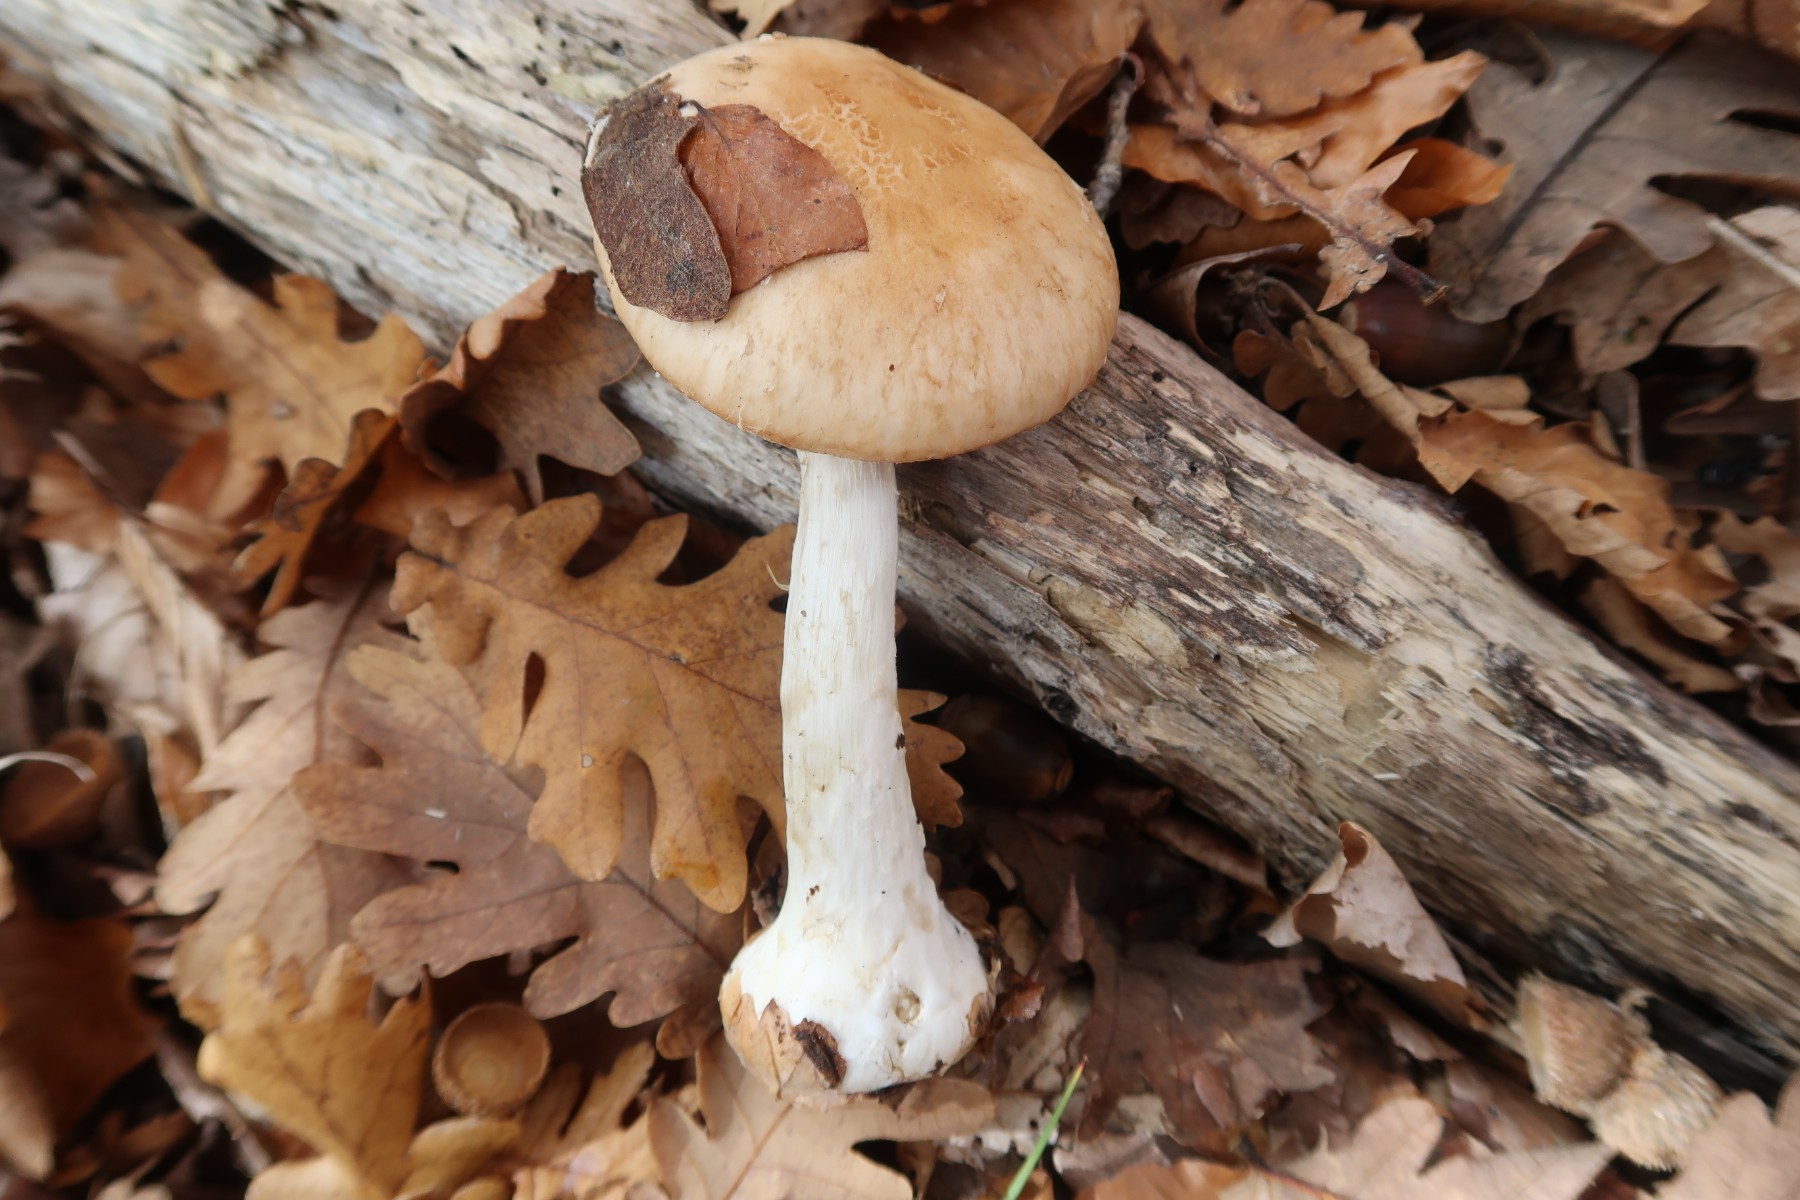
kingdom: Fungi
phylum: Basidiomycota
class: Agaricomycetes
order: Agaricales
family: Tricholomataceae
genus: Leucocortinarius
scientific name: Leucocortinarius bulbiger
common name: klumpfod
